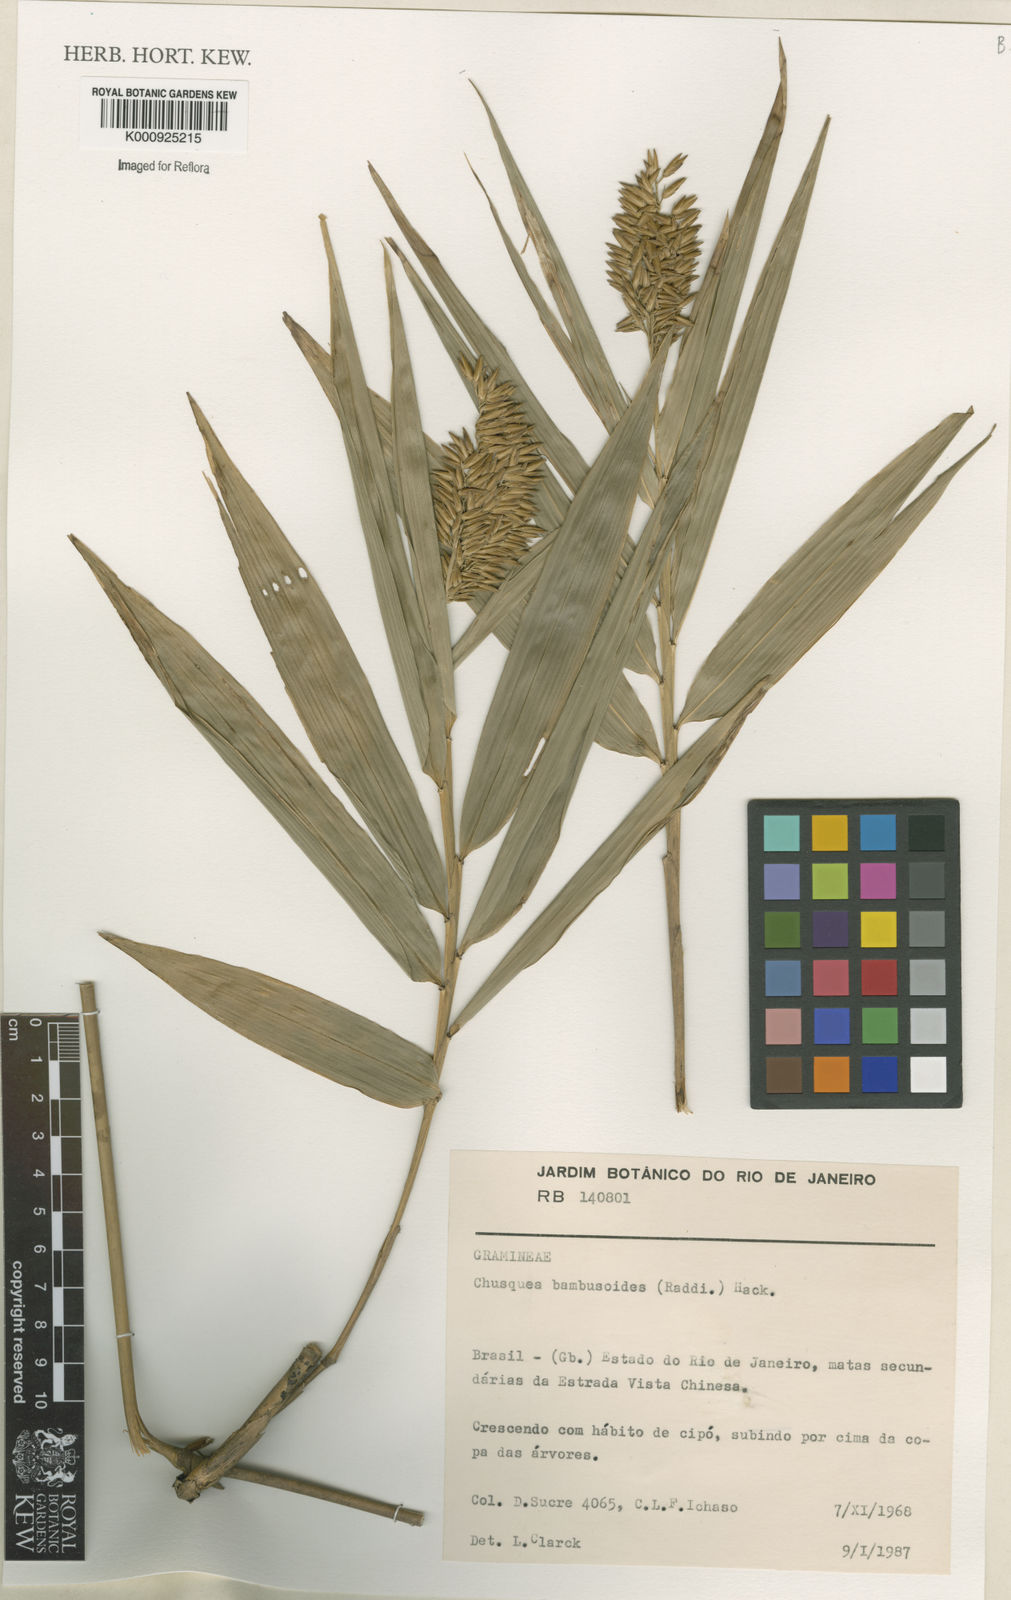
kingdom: Plantae
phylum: Tracheophyta
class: Liliopsida
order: Poales
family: Poaceae
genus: Chusquea
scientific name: Chusquea bambusoides
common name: Brazil scrambling bamboo
